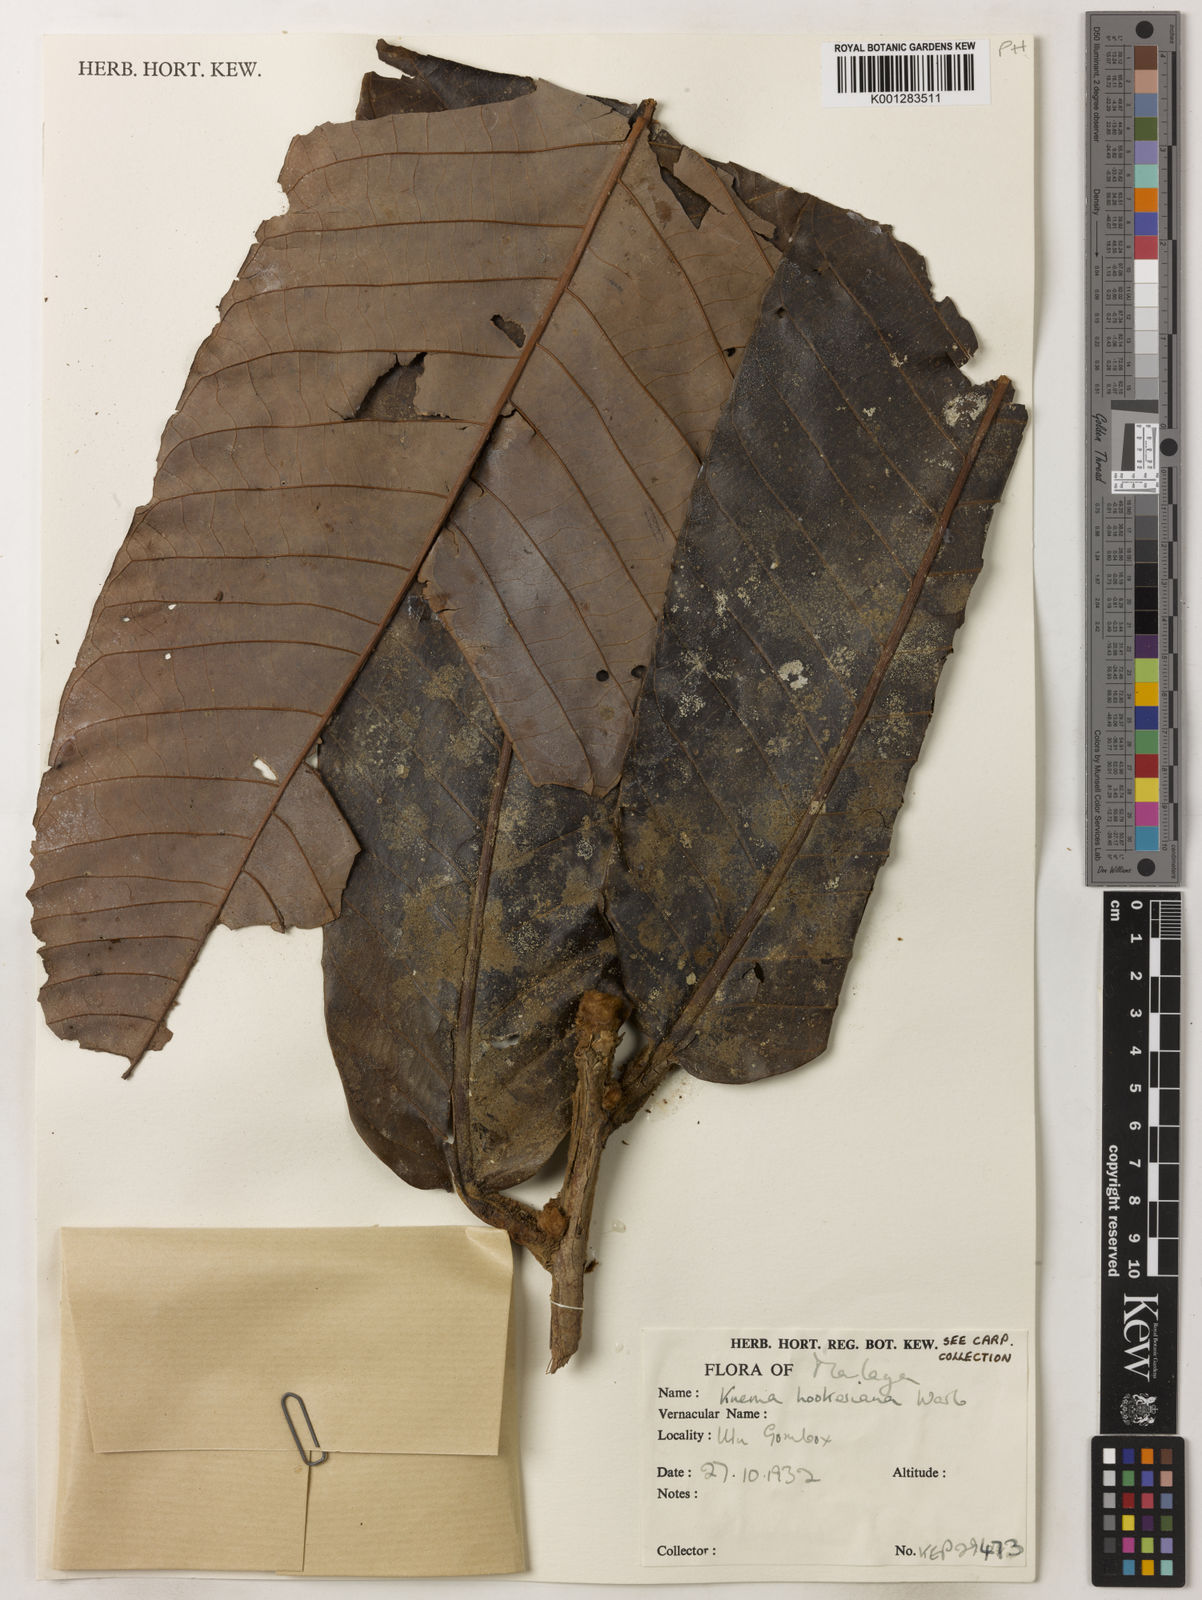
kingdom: Plantae
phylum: Tracheophyta
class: Magnoliopsida
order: Magnoliales
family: Myristicaceae
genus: Knema
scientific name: Knema hookeriana
